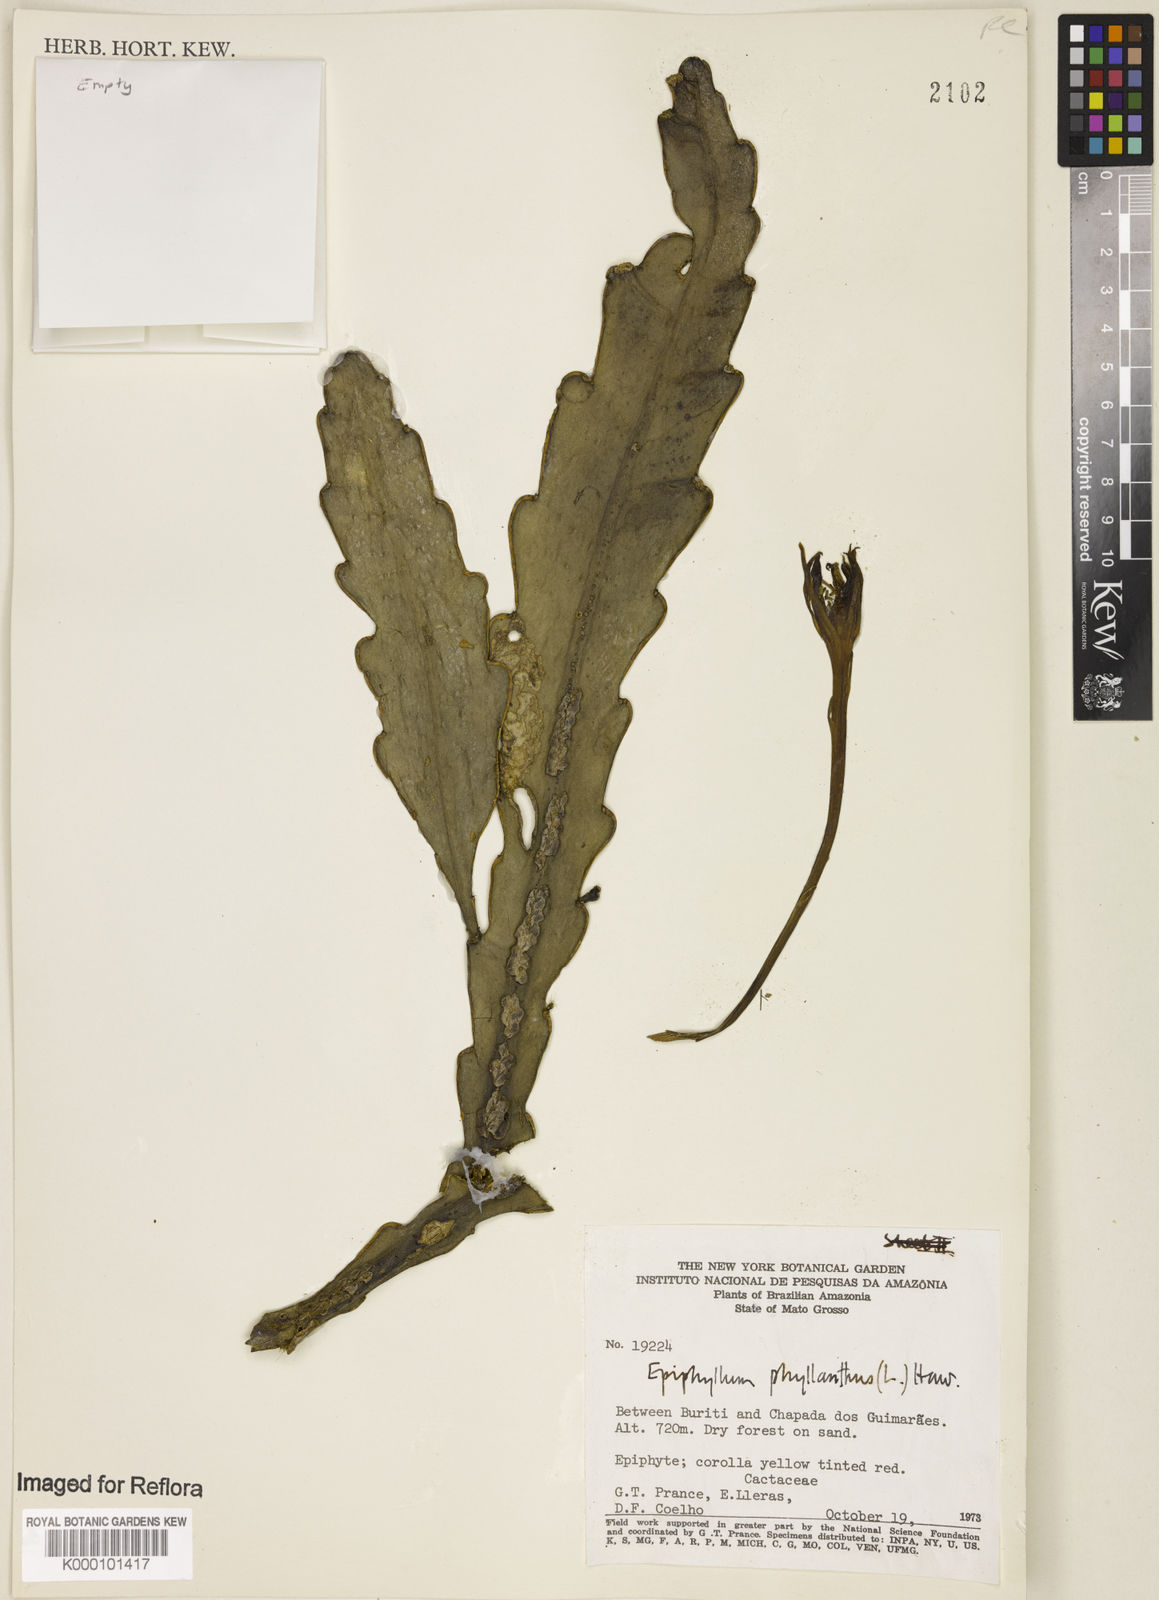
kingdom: Plantae
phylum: Tracheophyta
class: Magnoliopsida
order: Caryophyllales
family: Cactaceae
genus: Epiphyllum
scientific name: Epiphyllum phyllanthus
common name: Climbing cactus
